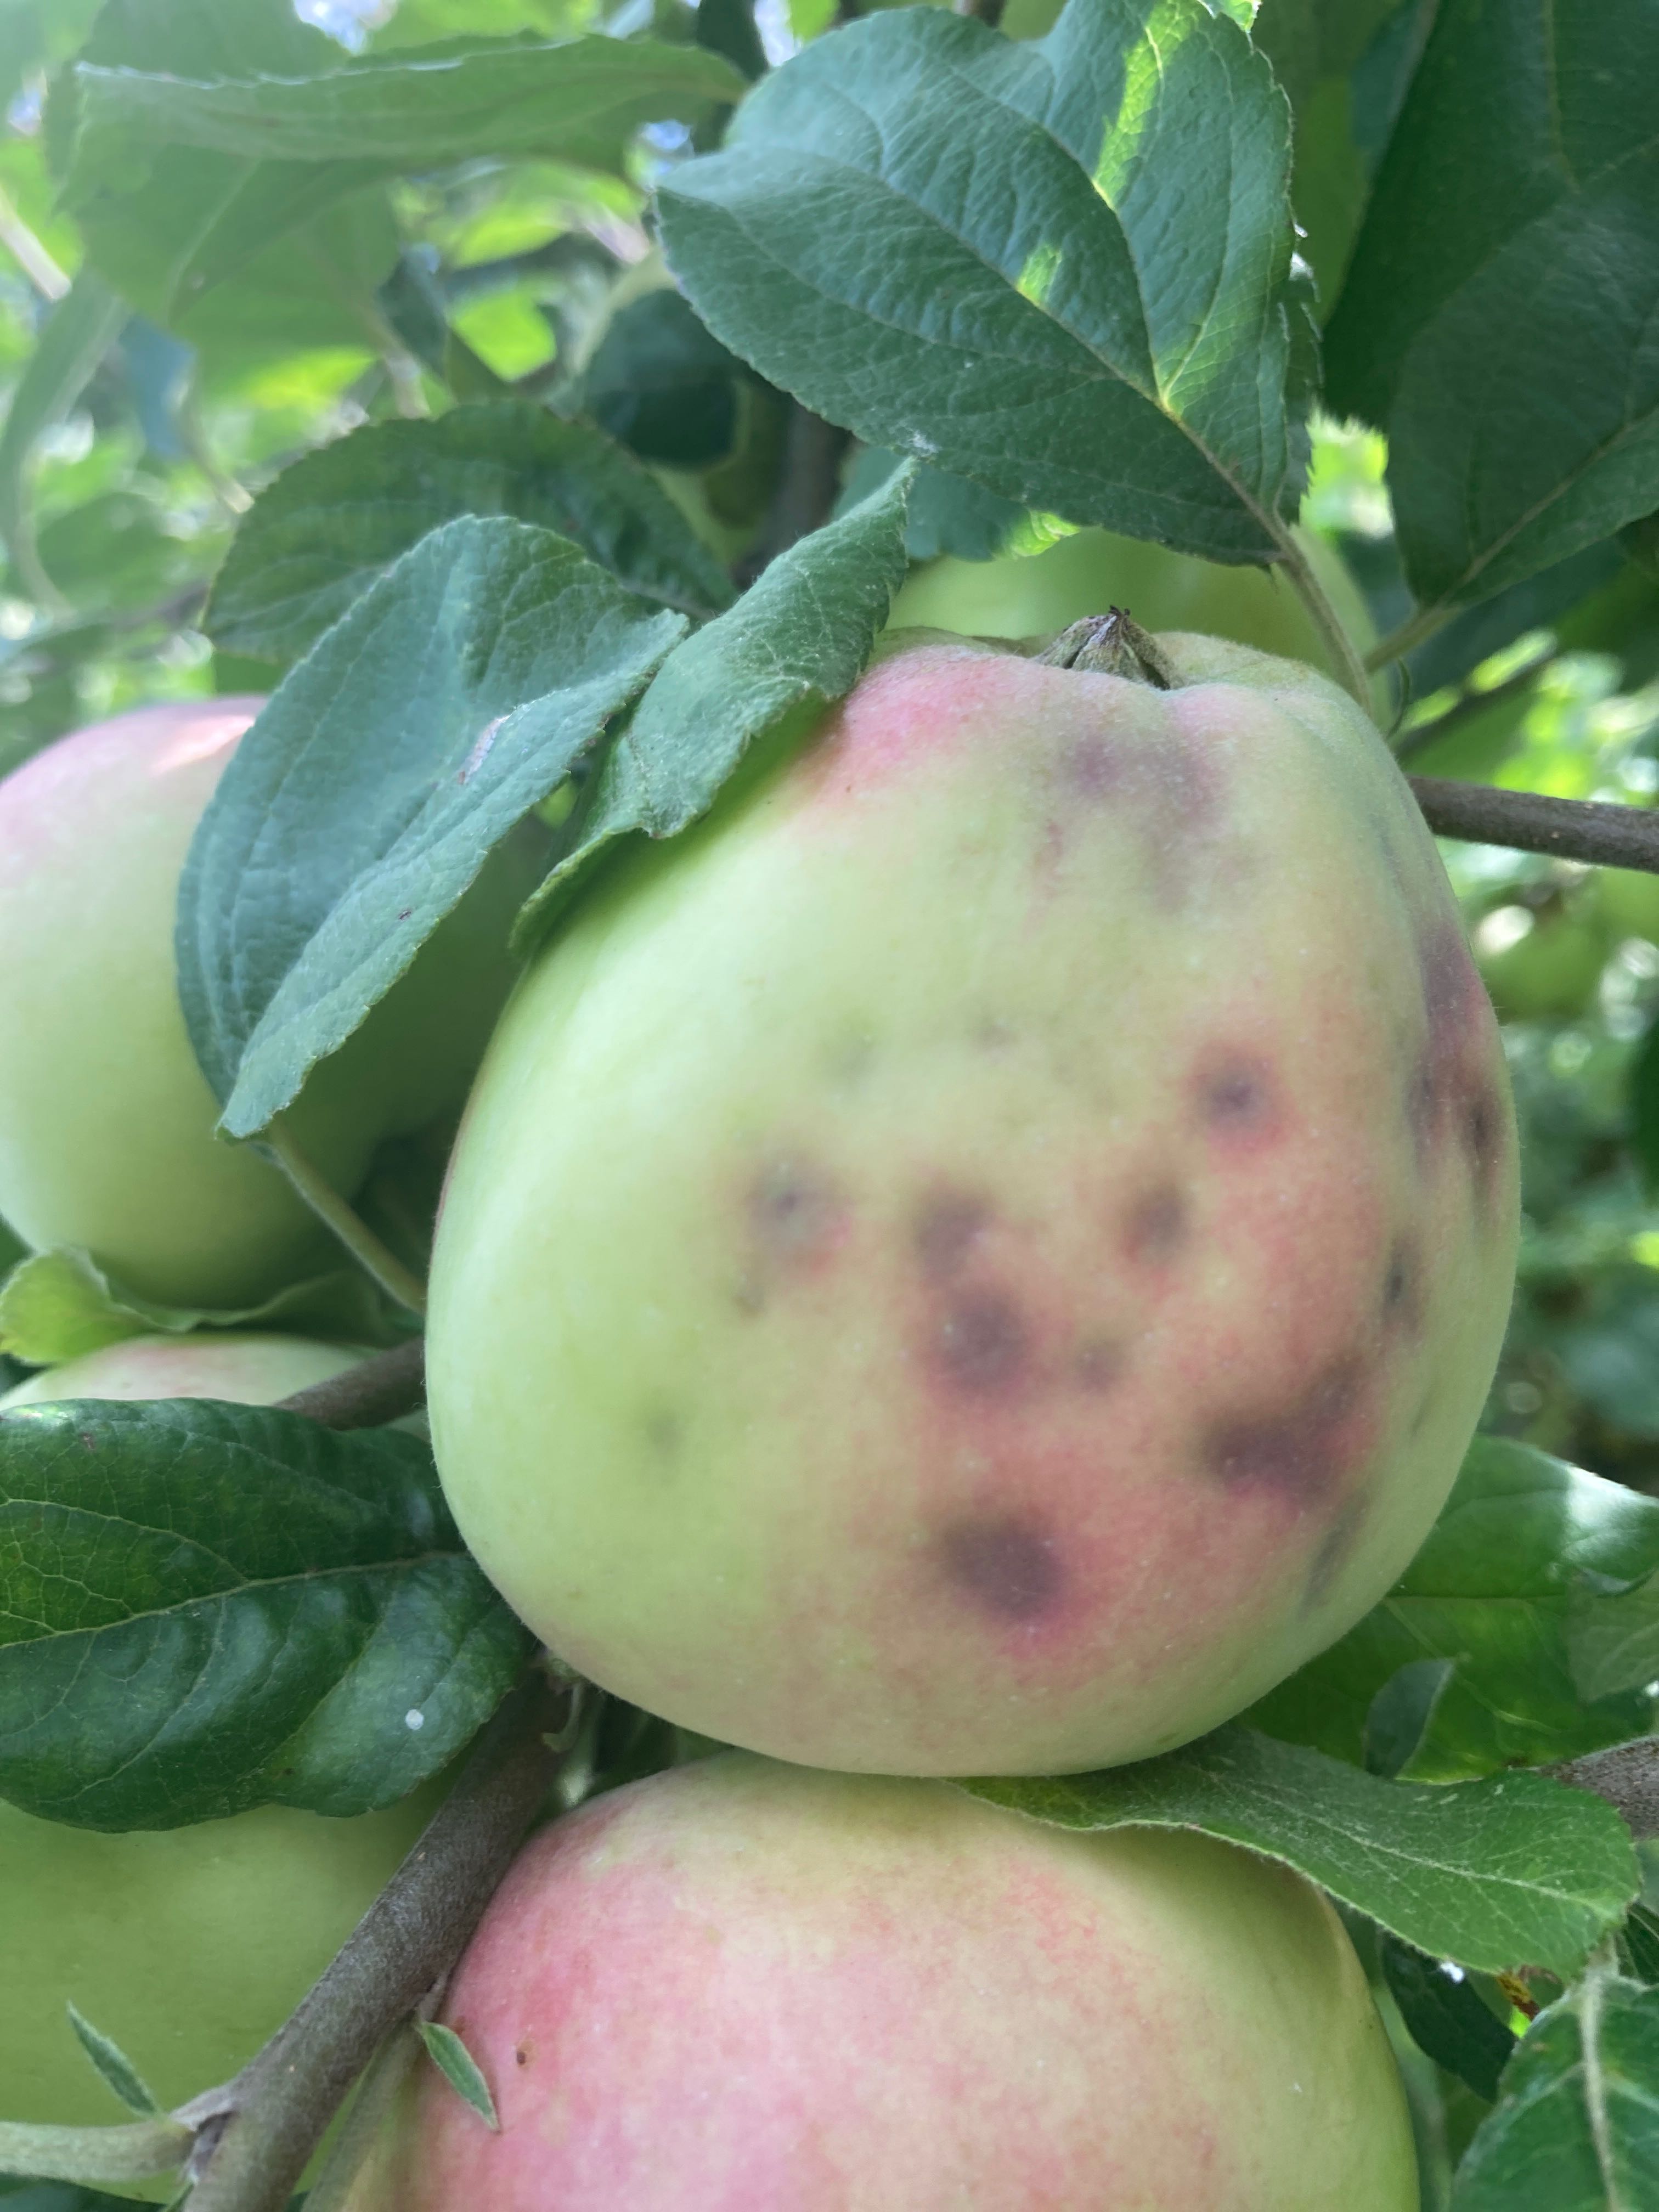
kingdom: Fungi
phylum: Ascomycota
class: Dothideomycetes
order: Venturiales
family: Venturiaceae
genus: Venturia
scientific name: Venturia inaequalis
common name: Apple scab
